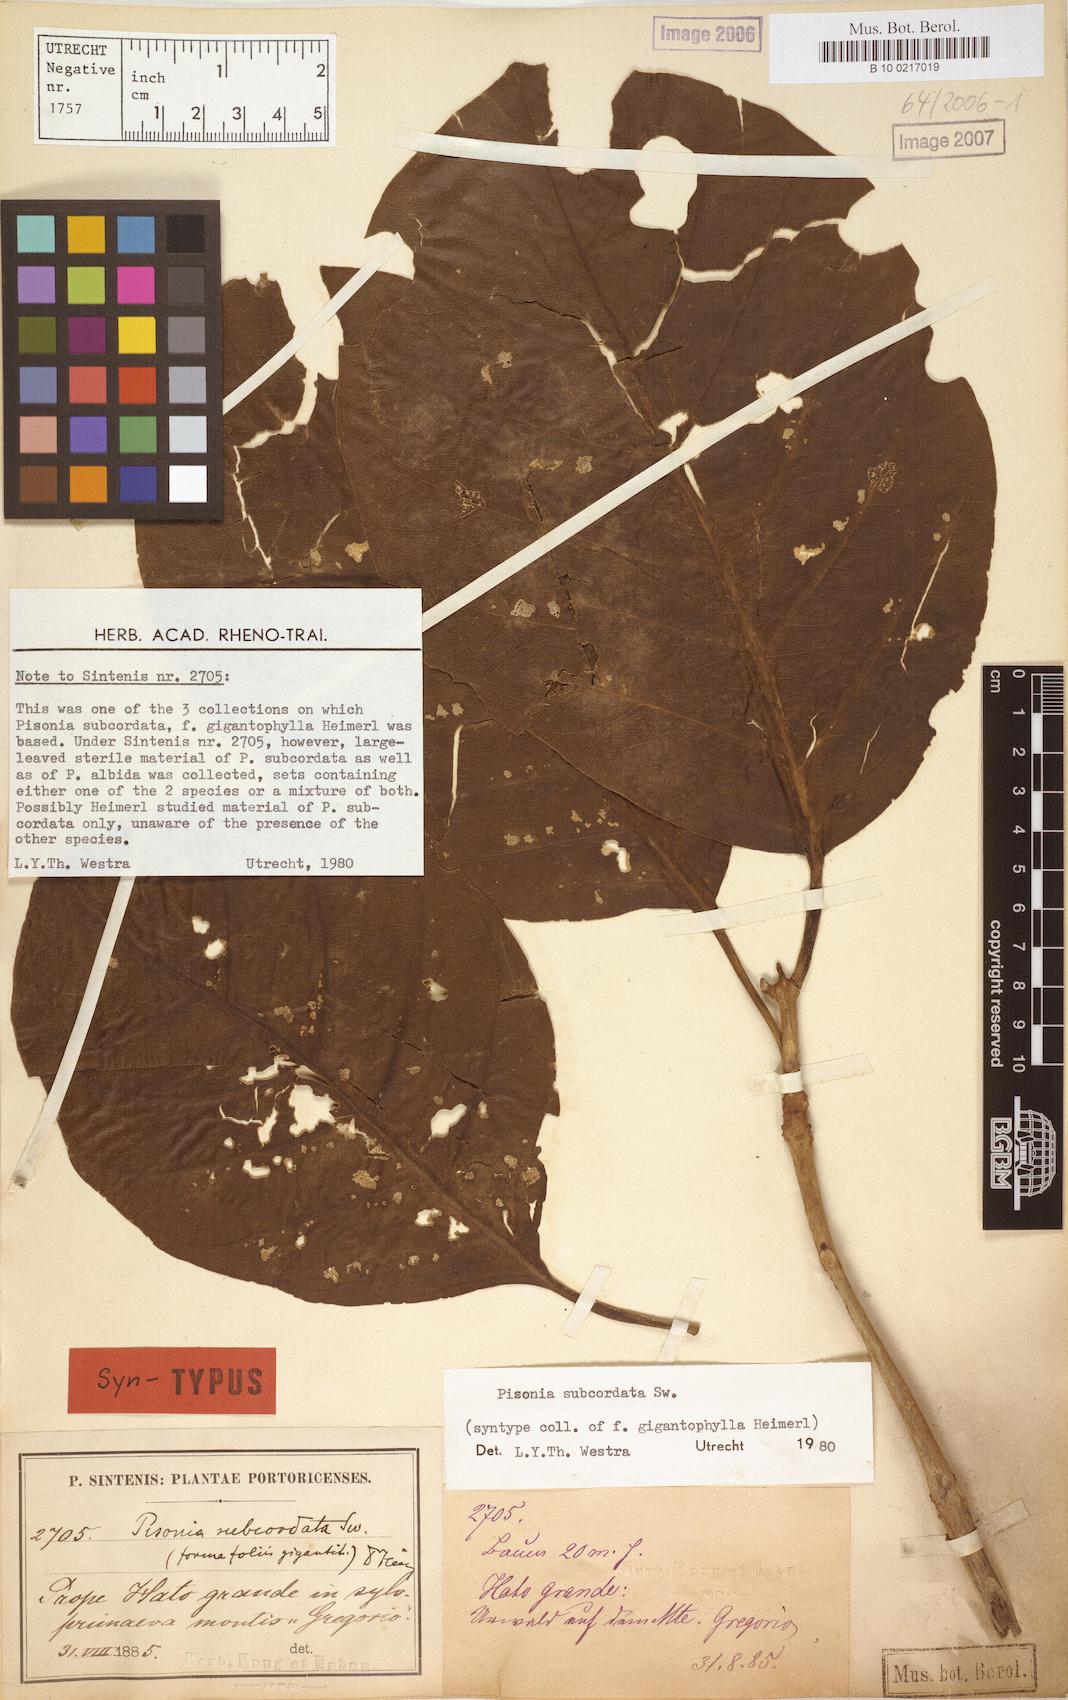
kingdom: Plantae
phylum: Tracheophyta
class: Magnoliopsida
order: Caryophyllales
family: Nyctaginaceae
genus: Pisonia
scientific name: Pisonia subcordata
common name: Mampoo
